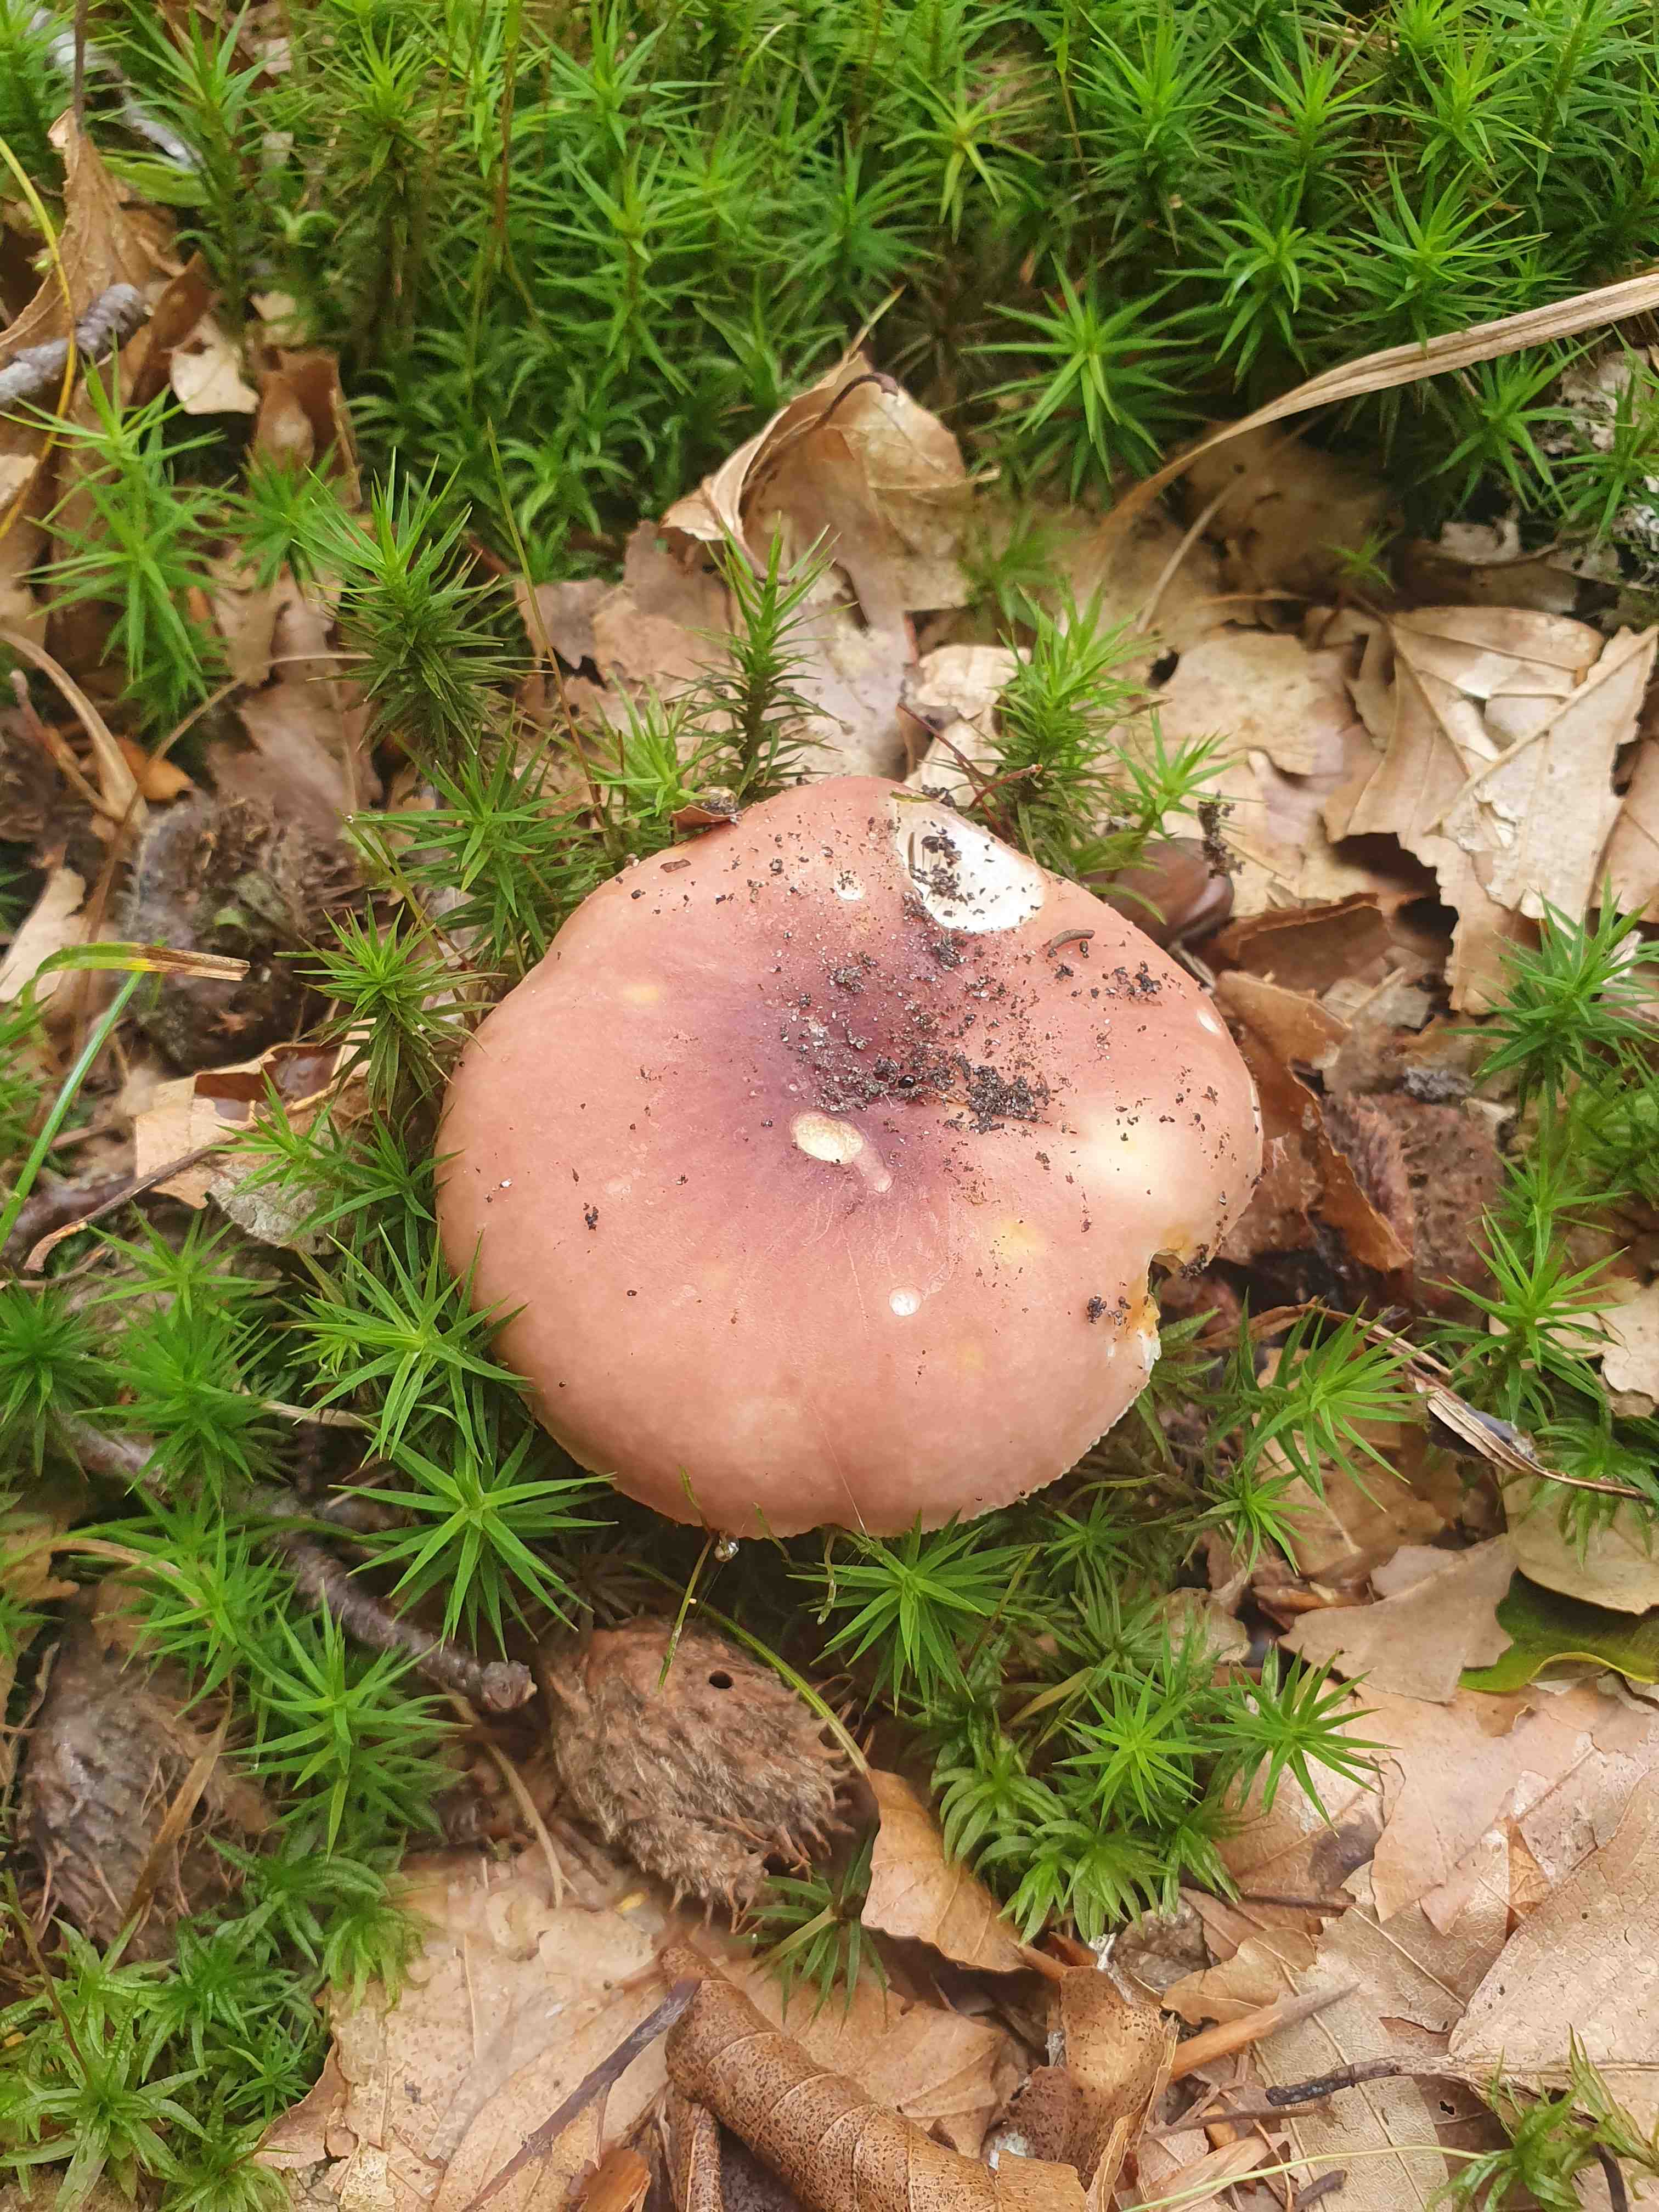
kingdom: Fungi
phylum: Basidiomycota
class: Agaricomycetes
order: Russulales
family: Russulaceae
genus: Russula
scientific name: Russula vesca
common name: spiselig skørhat
